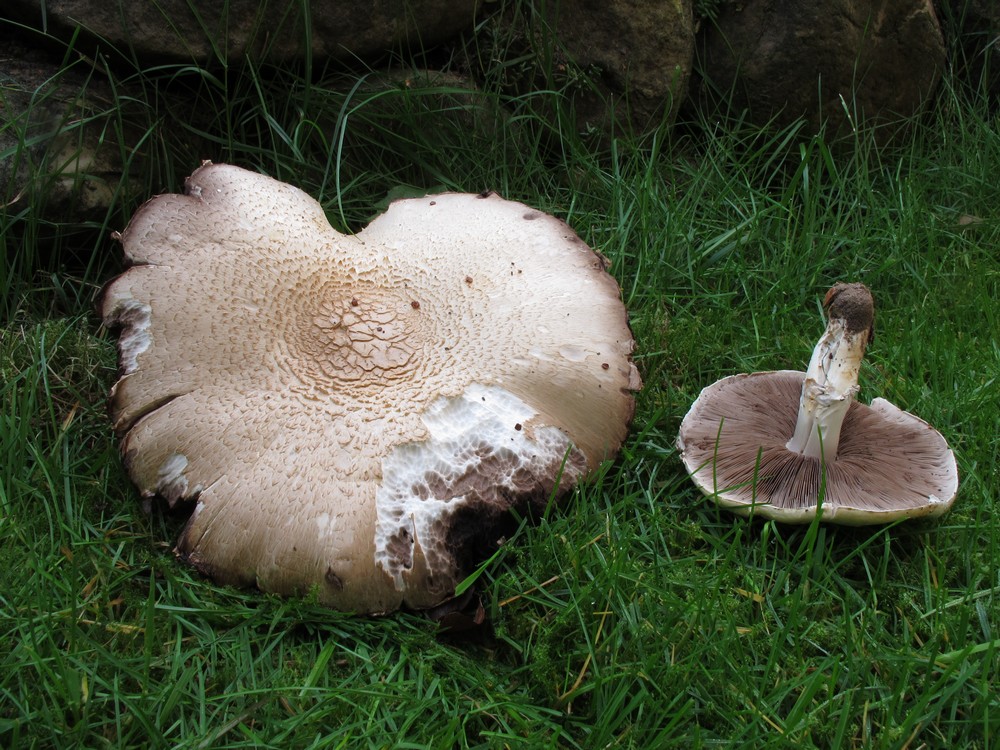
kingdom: Fungi
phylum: Basidiomycota
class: Agaricomycetes
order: Agaricales
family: Agaricaceae
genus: Agaricus
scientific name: Agaricus arvensis
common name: ager-champignon
